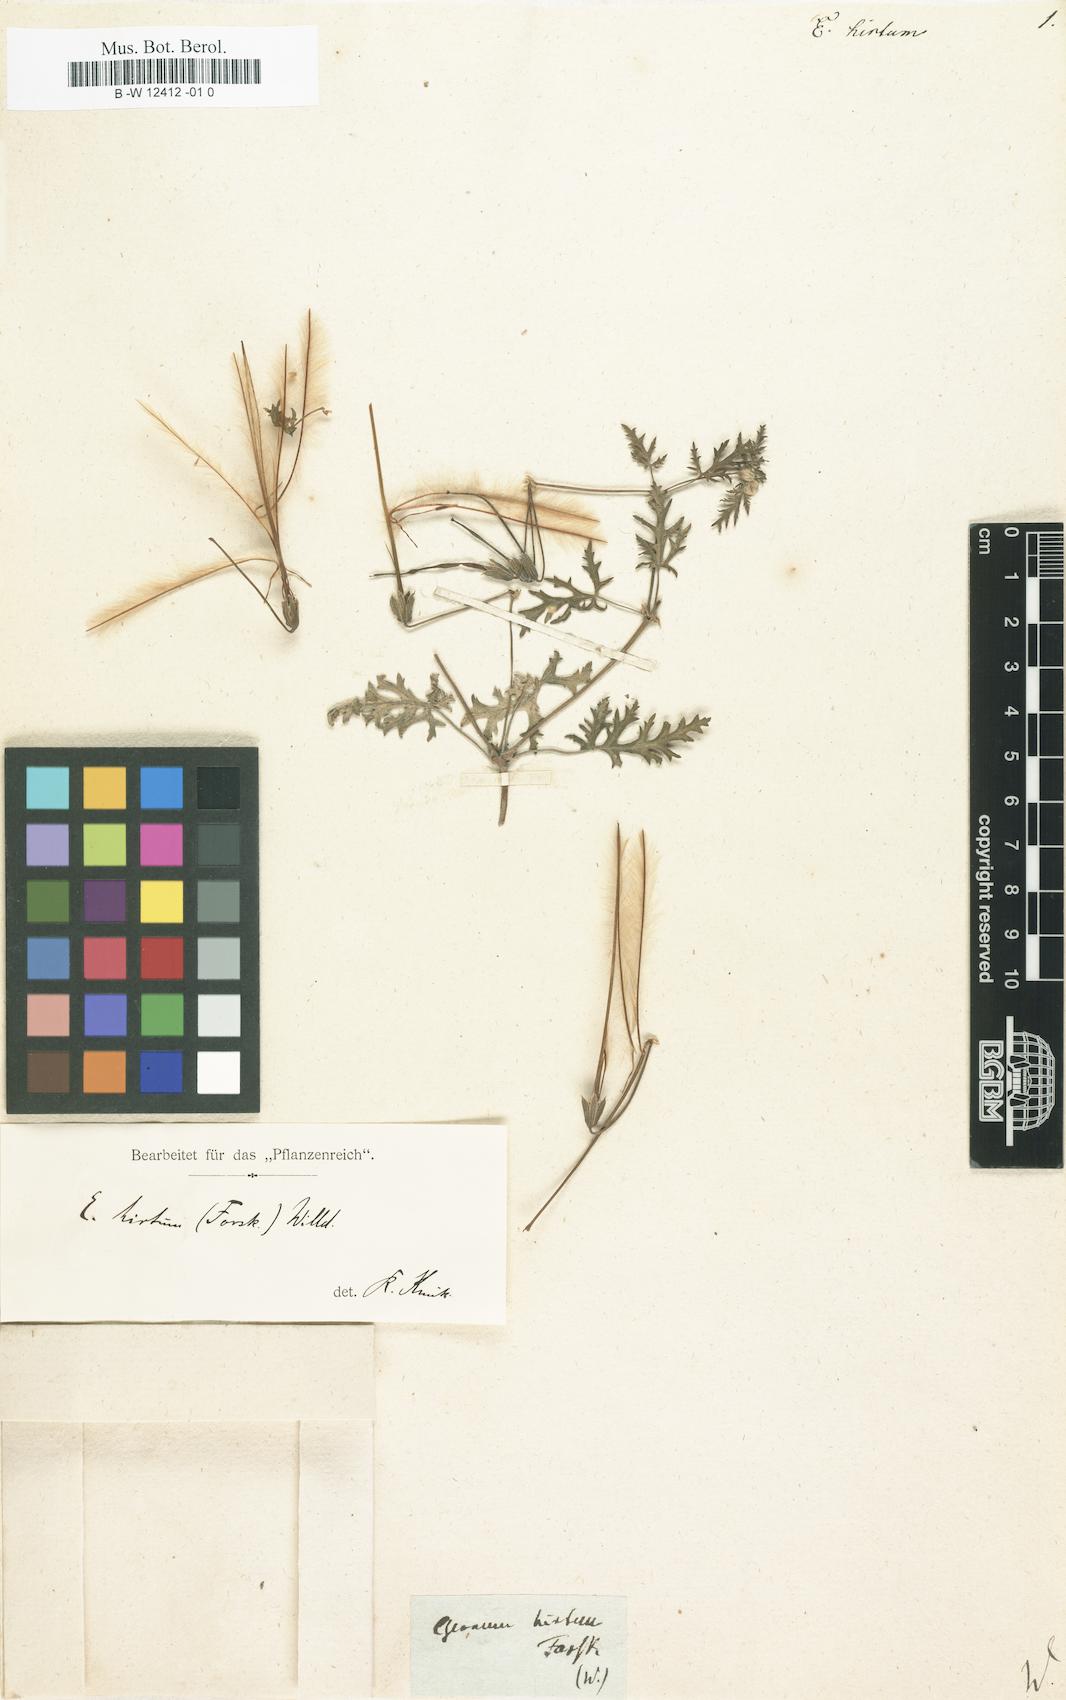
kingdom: Plantae
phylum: Tracheophyta
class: Magnoliopsida
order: Geraniales
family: Geraniaceae
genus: Erodium
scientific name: Erodium
